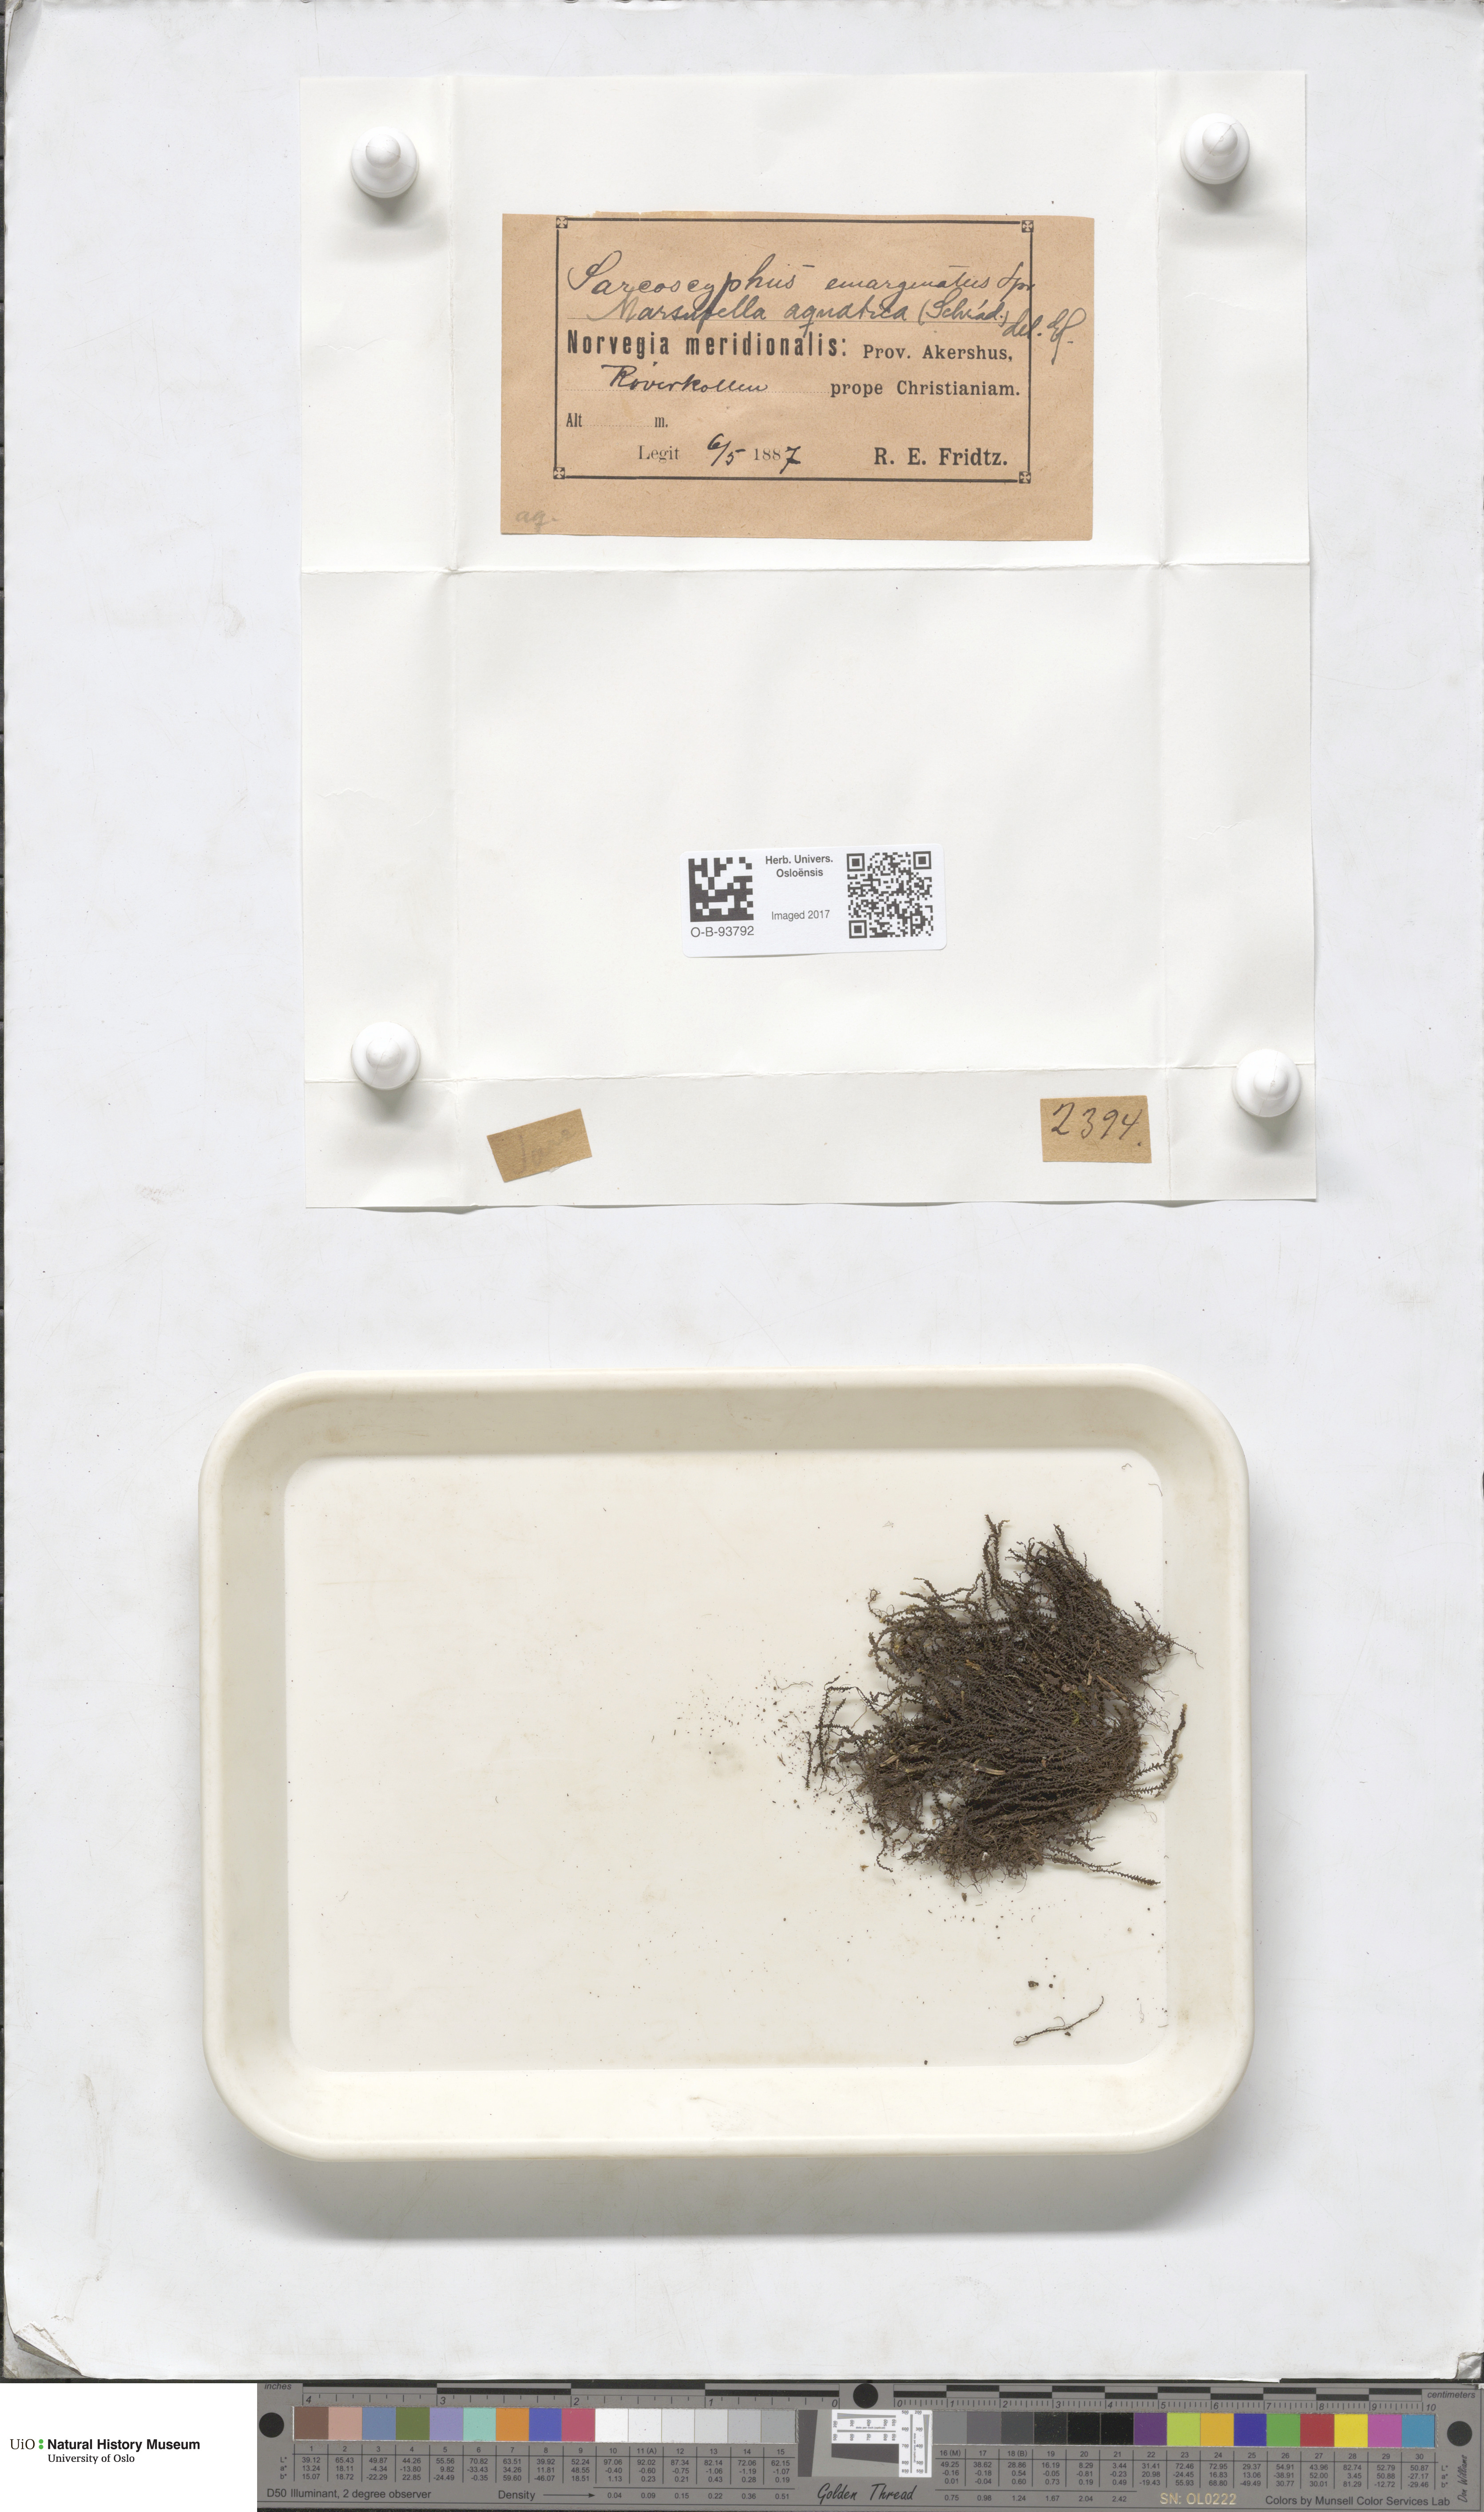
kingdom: Plantae
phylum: Marchantiophyta
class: Jungermanniopsida
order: Jungermanniales
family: Gymnomitriaceae
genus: Marsupella
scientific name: Marsupella emarginata
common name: Notched rustwort
